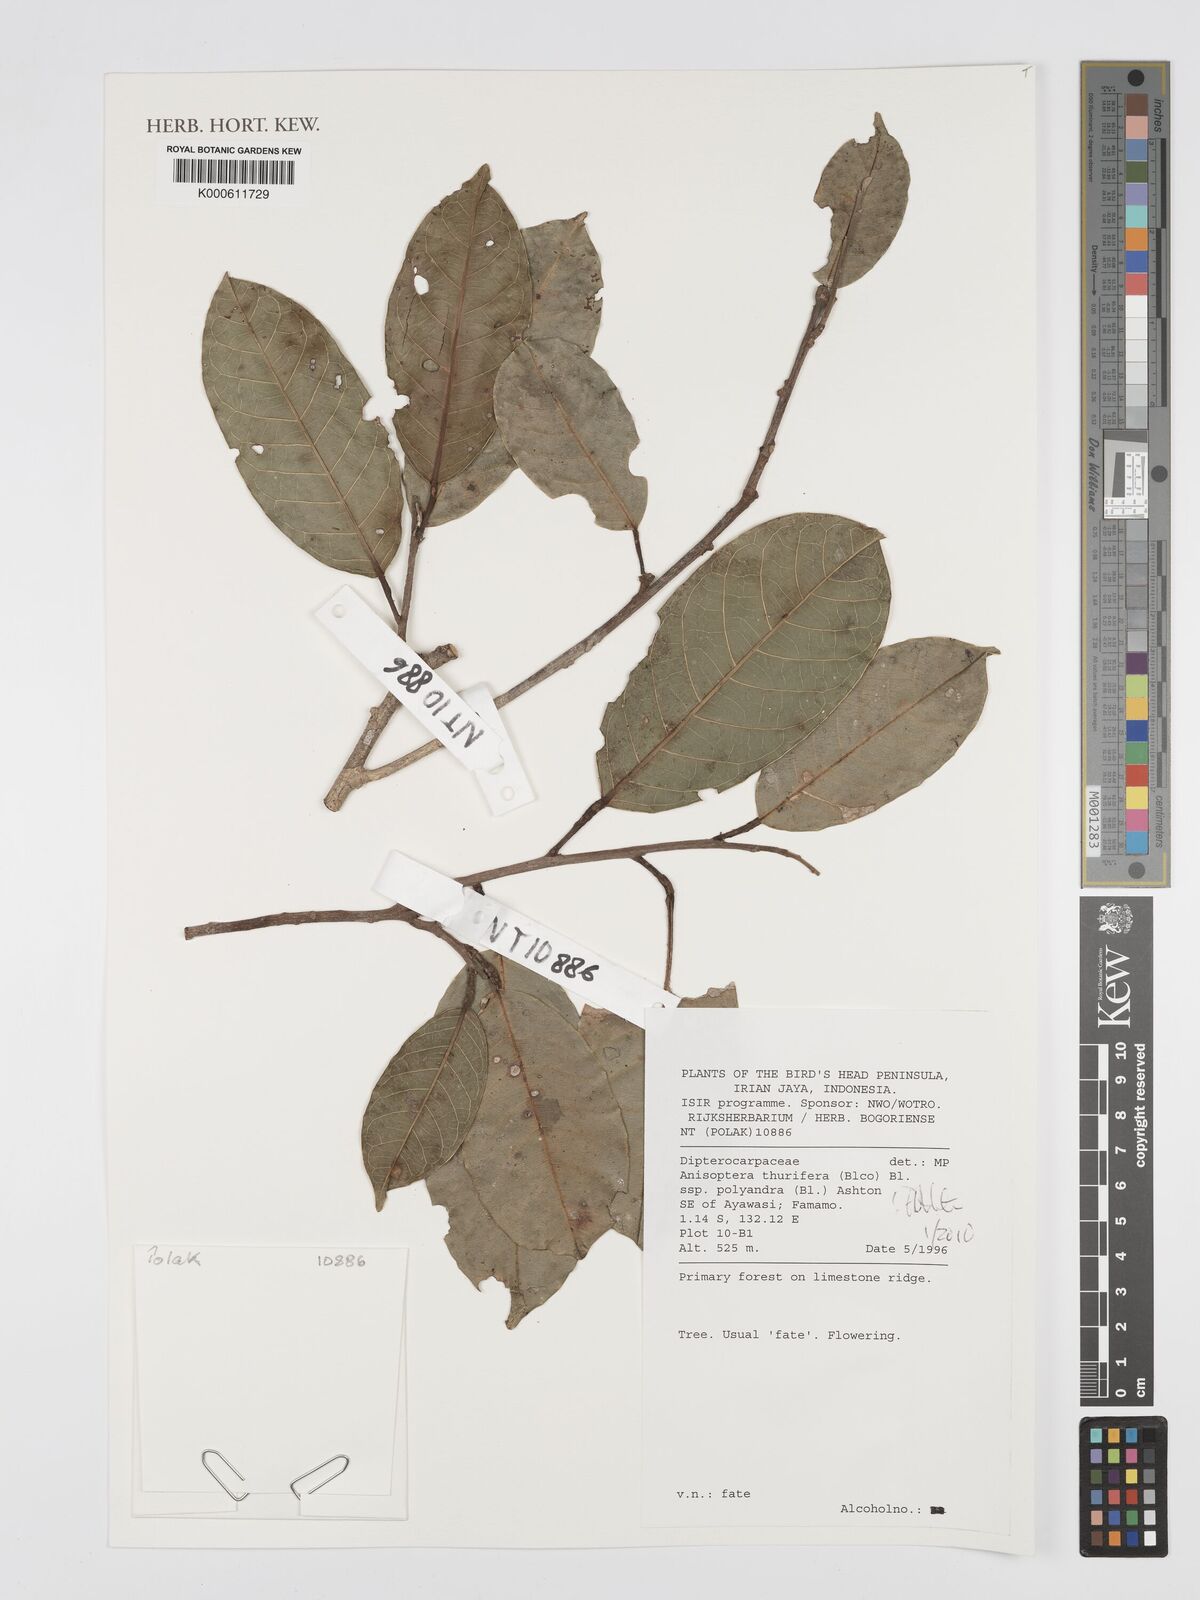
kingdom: Plantae
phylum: Tracheophyta
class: Magnoliopsida
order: Malvales
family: Dipterocarpaceae
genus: Anisoptera
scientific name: Anisoptera thurifera
